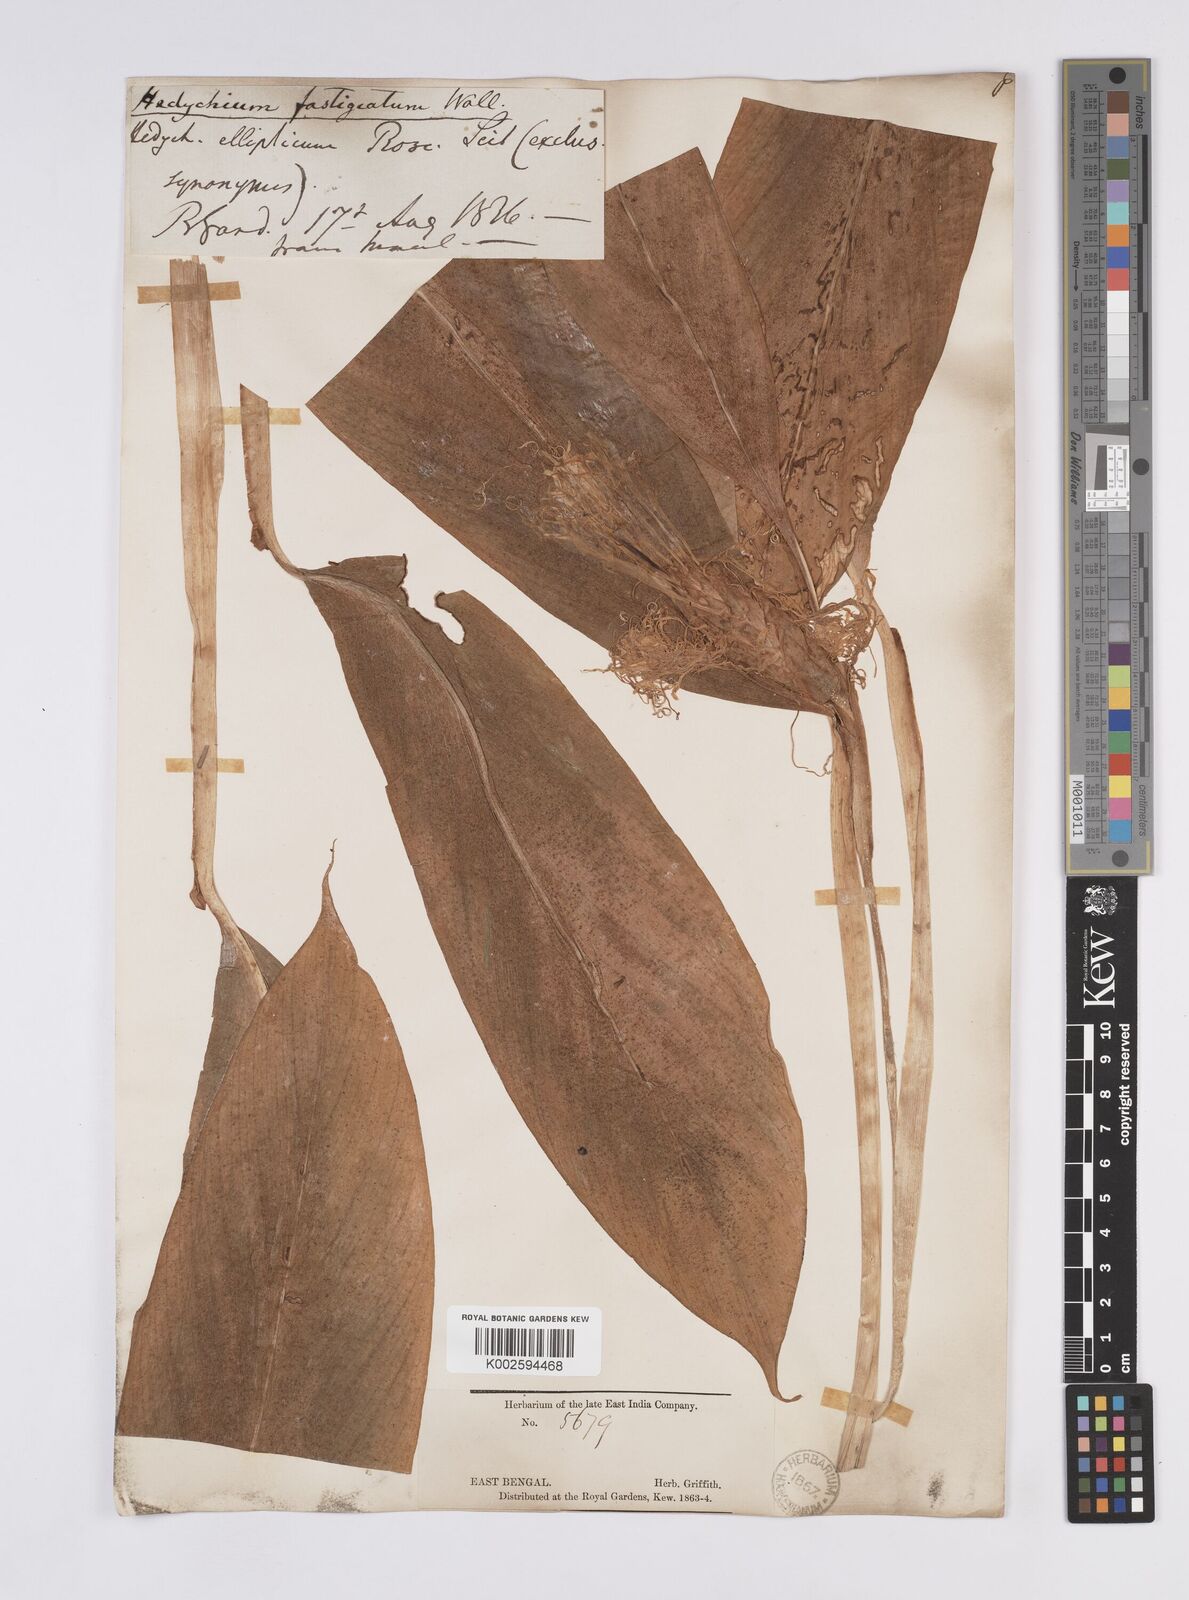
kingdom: Plantae
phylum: Tracheophyta
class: Liliopsida
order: Zingiberales
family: Zingiberaceae
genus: Hedychium
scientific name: Hedychium
